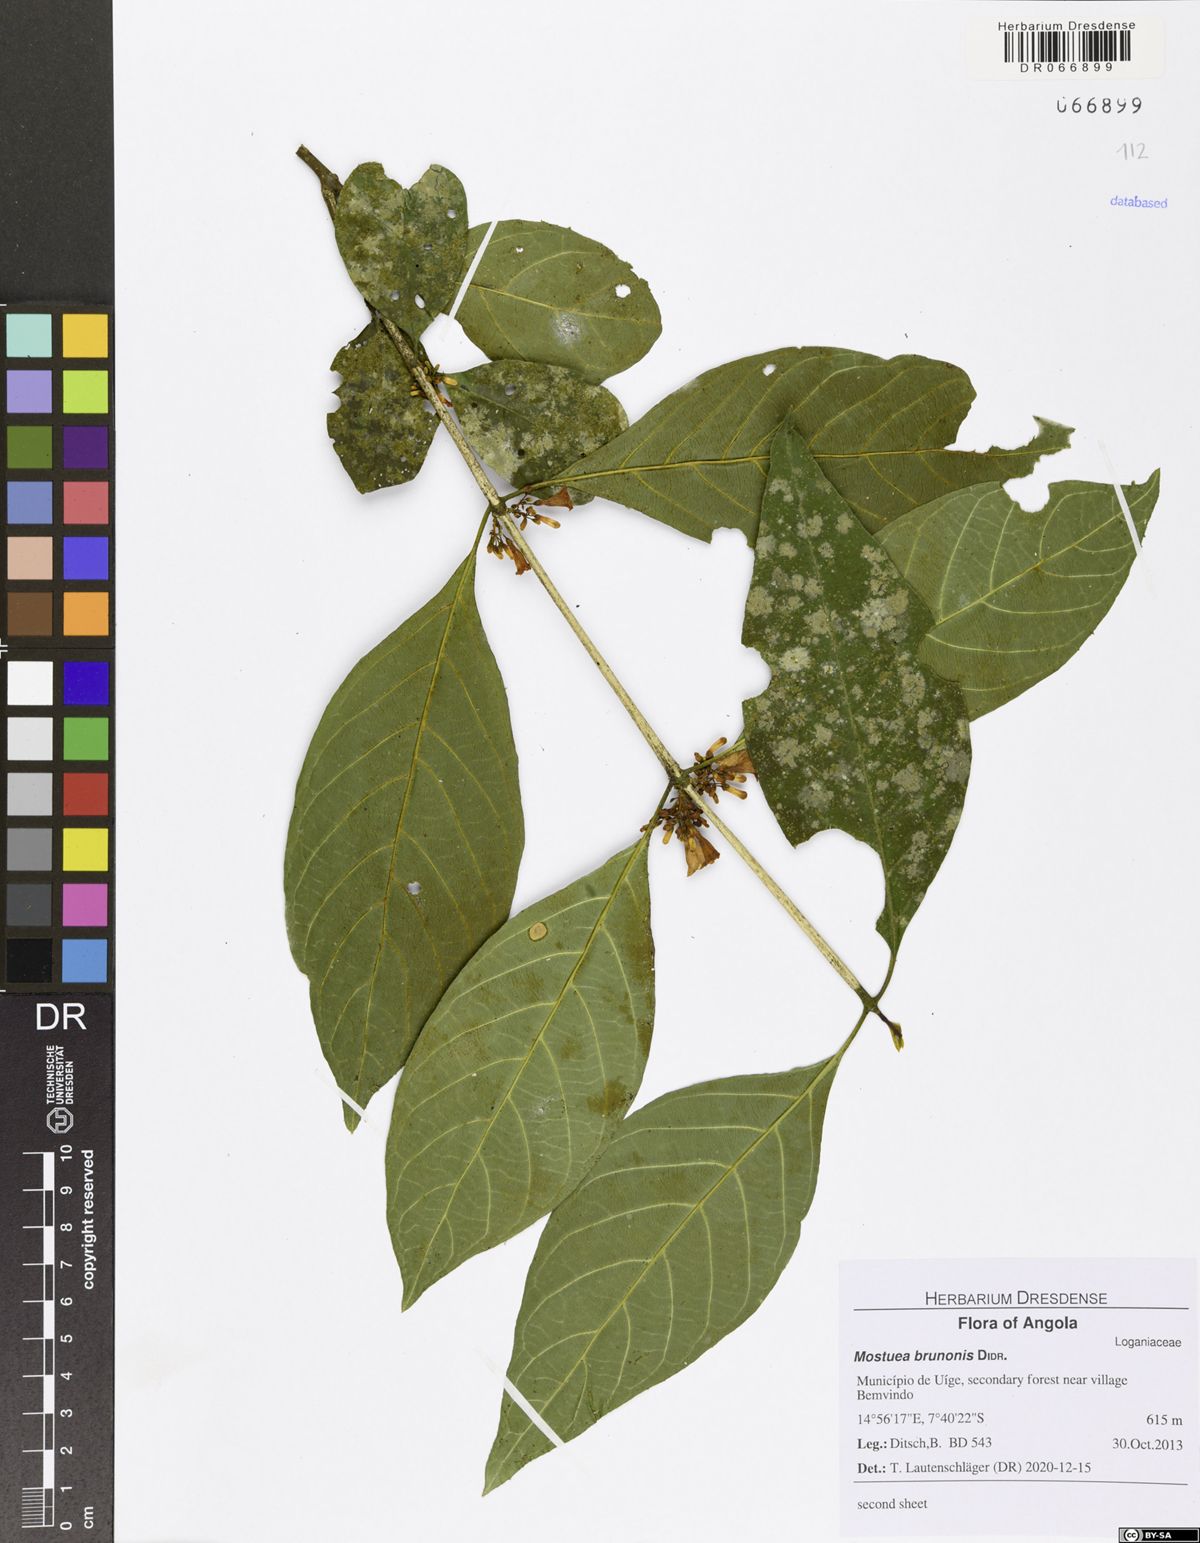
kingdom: Plantae
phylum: Tracheophyta
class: Magnoliopsida
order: Gentianales
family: Gelsemiaceae
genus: Mostuea
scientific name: Mostuea brunonis
